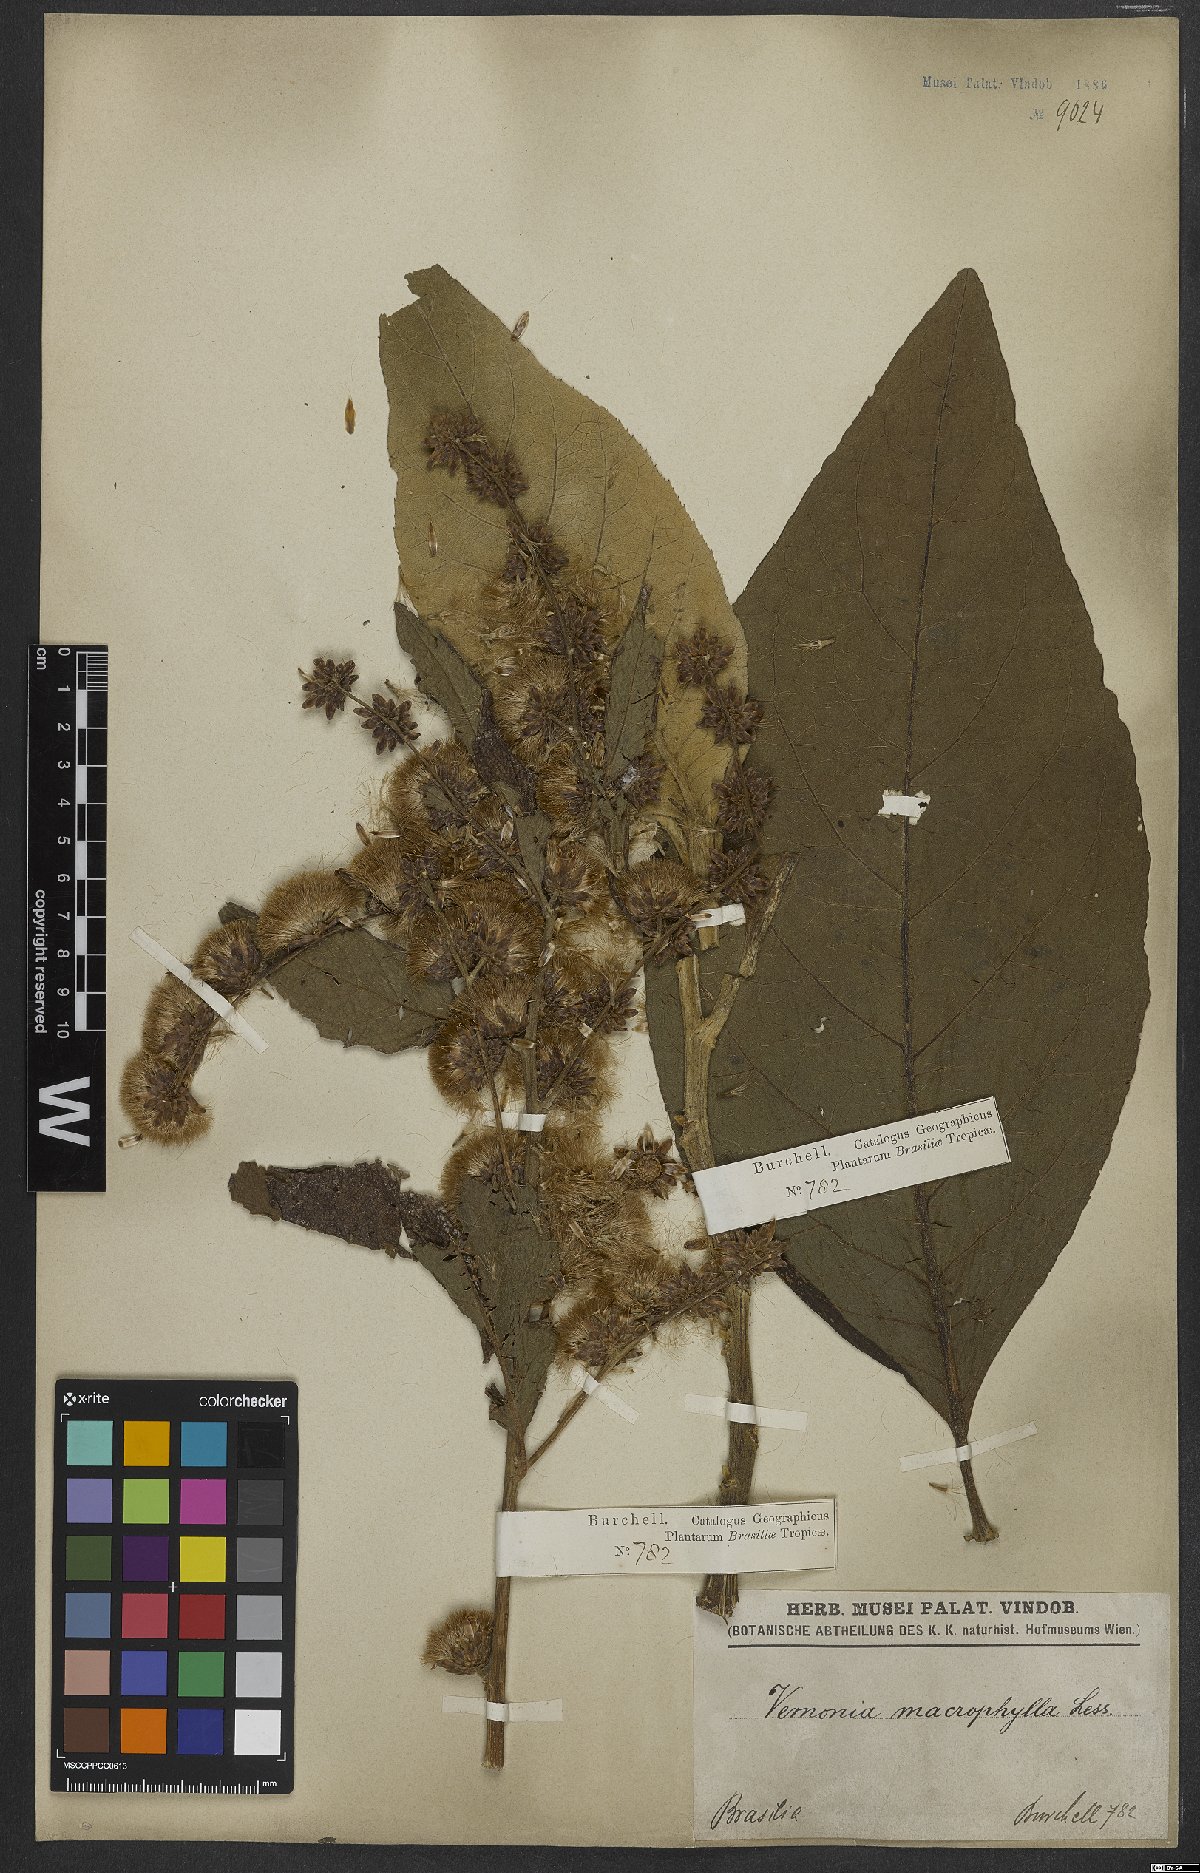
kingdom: Plantae
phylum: Tracheophyta
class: Magnoliopsida
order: Asterales
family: Asteraceae
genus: Gymnanthemum
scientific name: Gymnanthemum theophrastifolium
